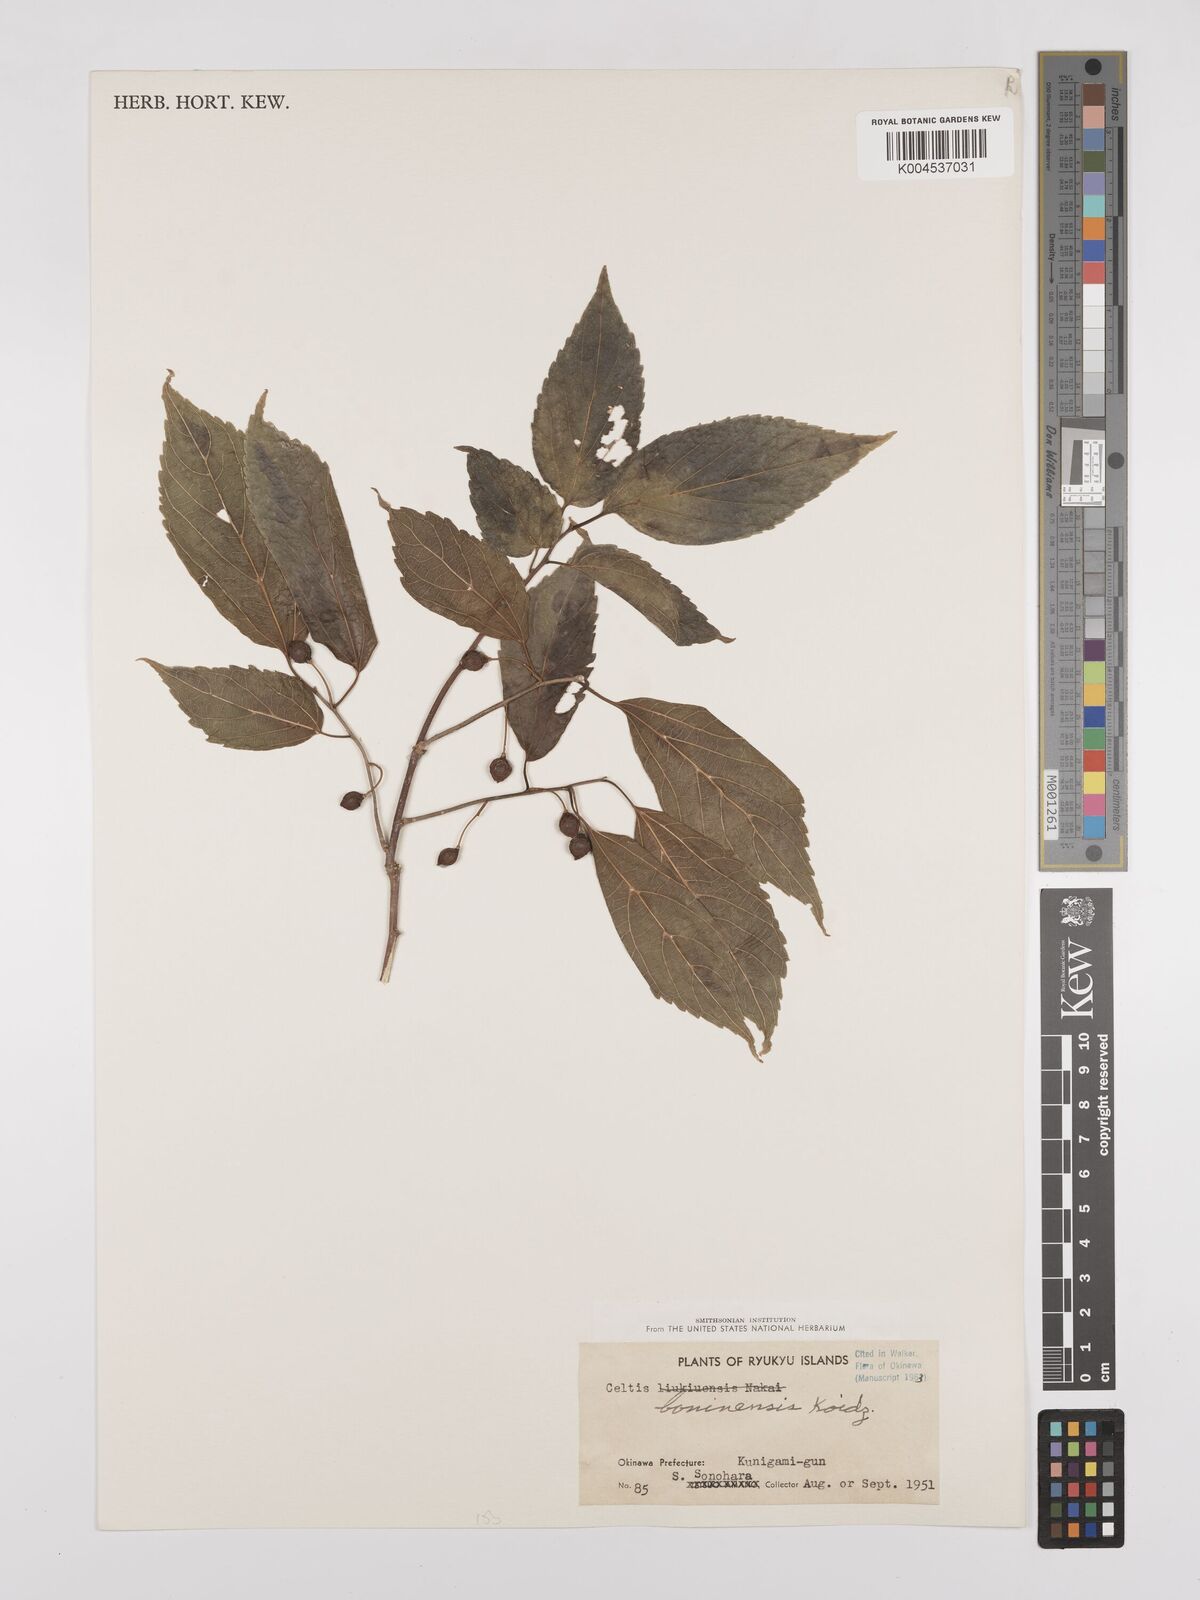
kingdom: Plantae
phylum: Tracheophyta
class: Magnoliopsida
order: Rosales
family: Cannabaceae
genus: Celtis
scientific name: Celtis tetrandra
